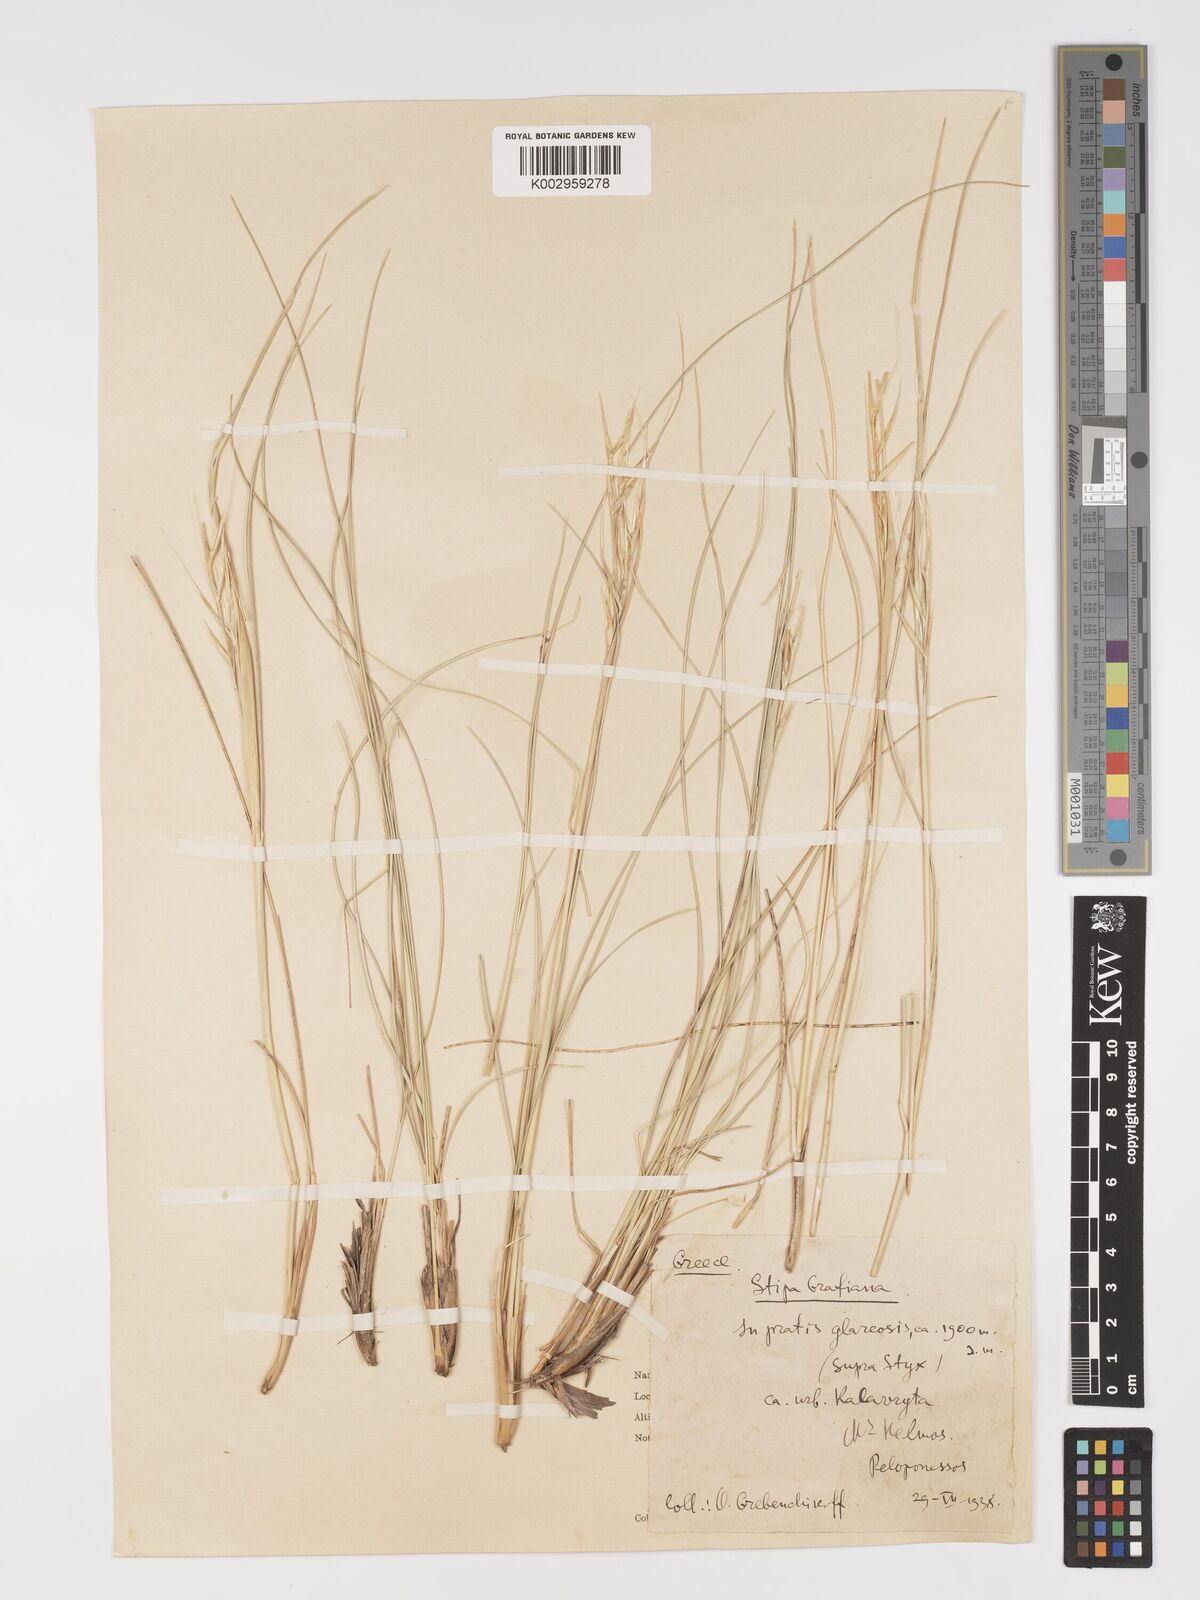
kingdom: Plantae
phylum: Tracheophyta
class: Liliopsida
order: Poales
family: Poaceae
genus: Stipa
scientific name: Stipa pulcherrima
